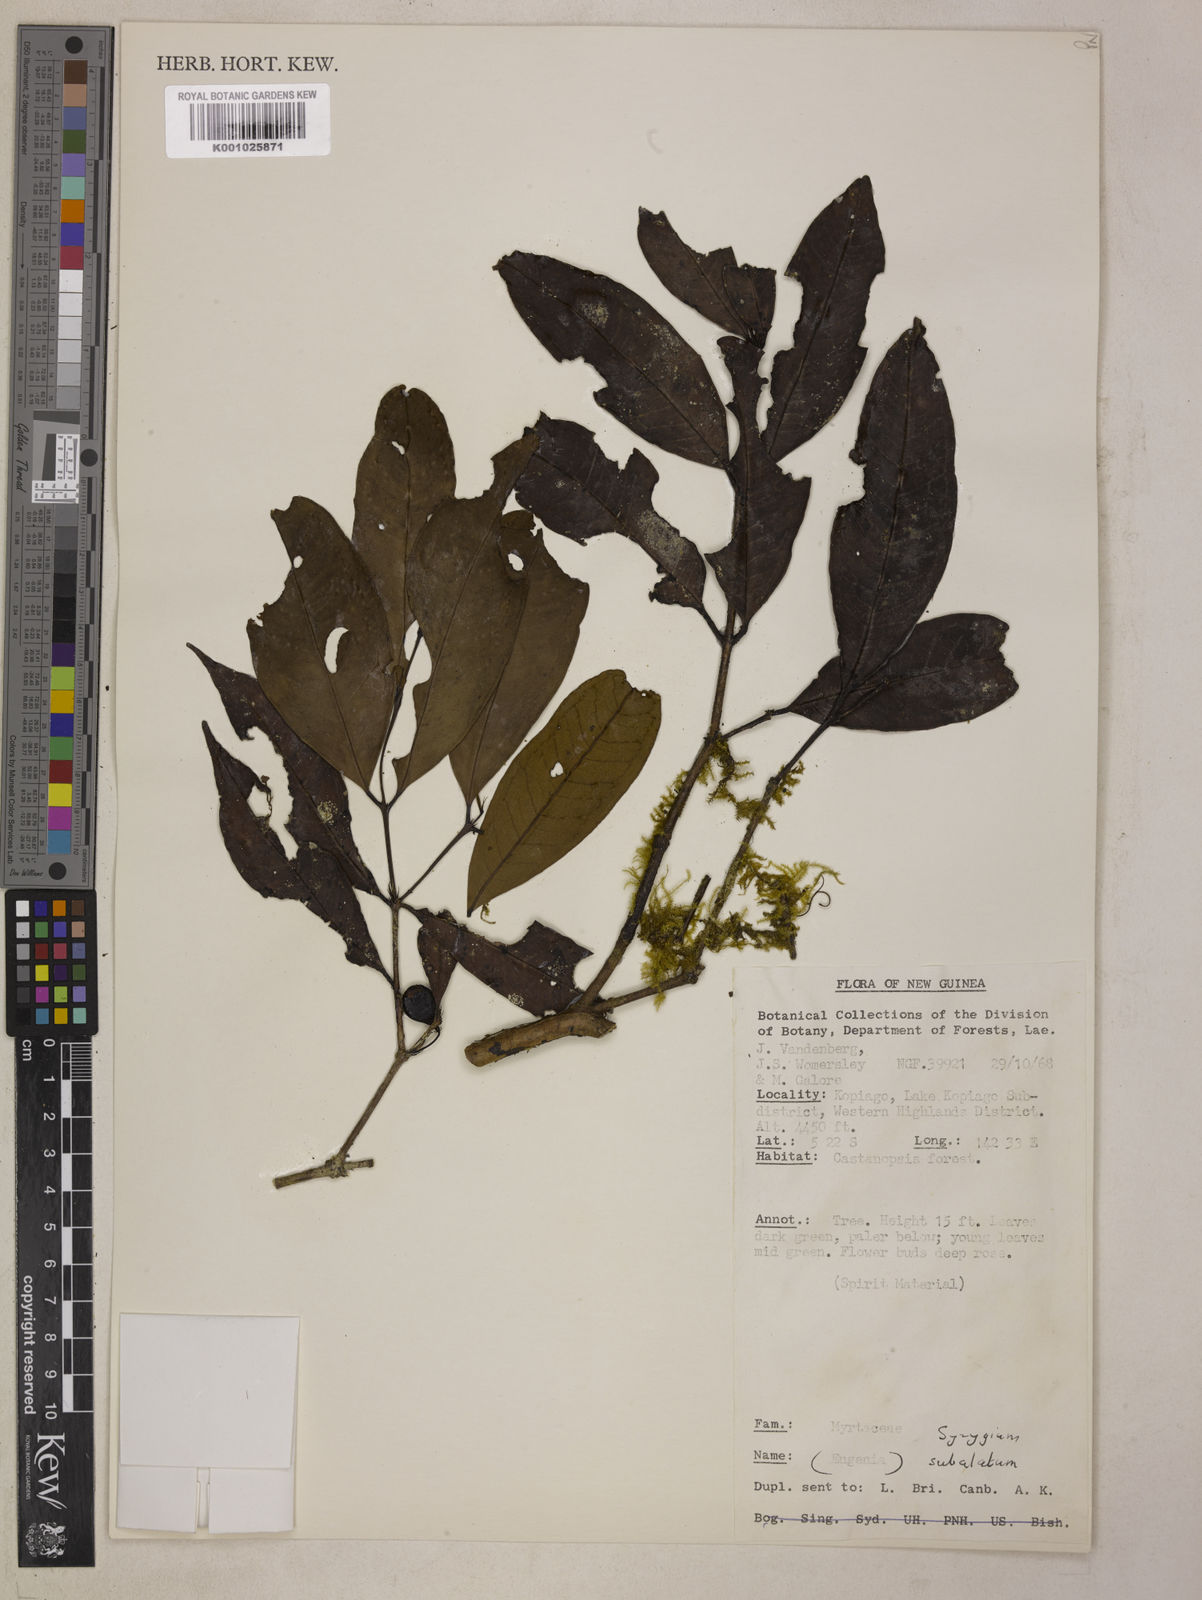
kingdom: Plantae
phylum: Tracheophyta
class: Magnoliopsida
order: Myrtales
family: Myrtaceae
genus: Syzygium
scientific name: Syzygium subalatum
